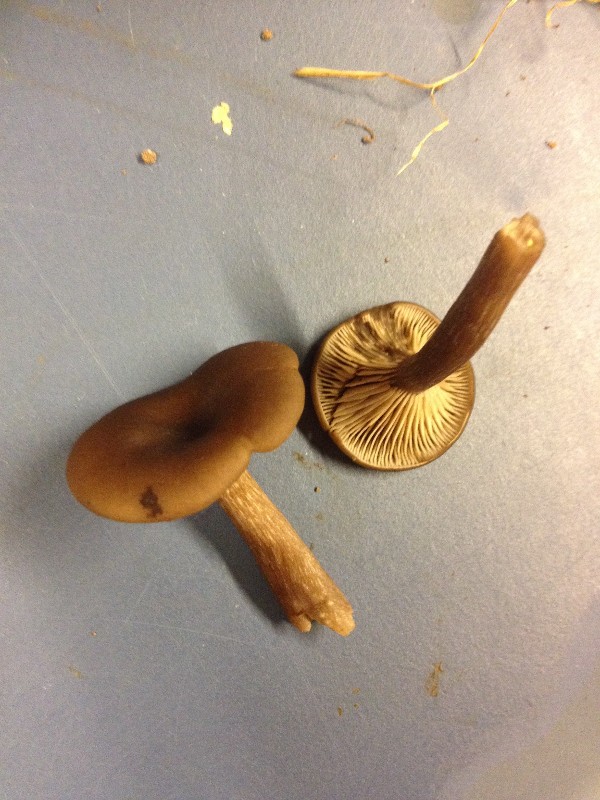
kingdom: Fungi
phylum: Basidiomycota
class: Agaricomycetes
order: Agaricales
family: Pseudoclitocybaceae
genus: Pseudoclitocybe
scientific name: Pseudoclitocybe cyathiformis
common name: almindelig bægertragthat
